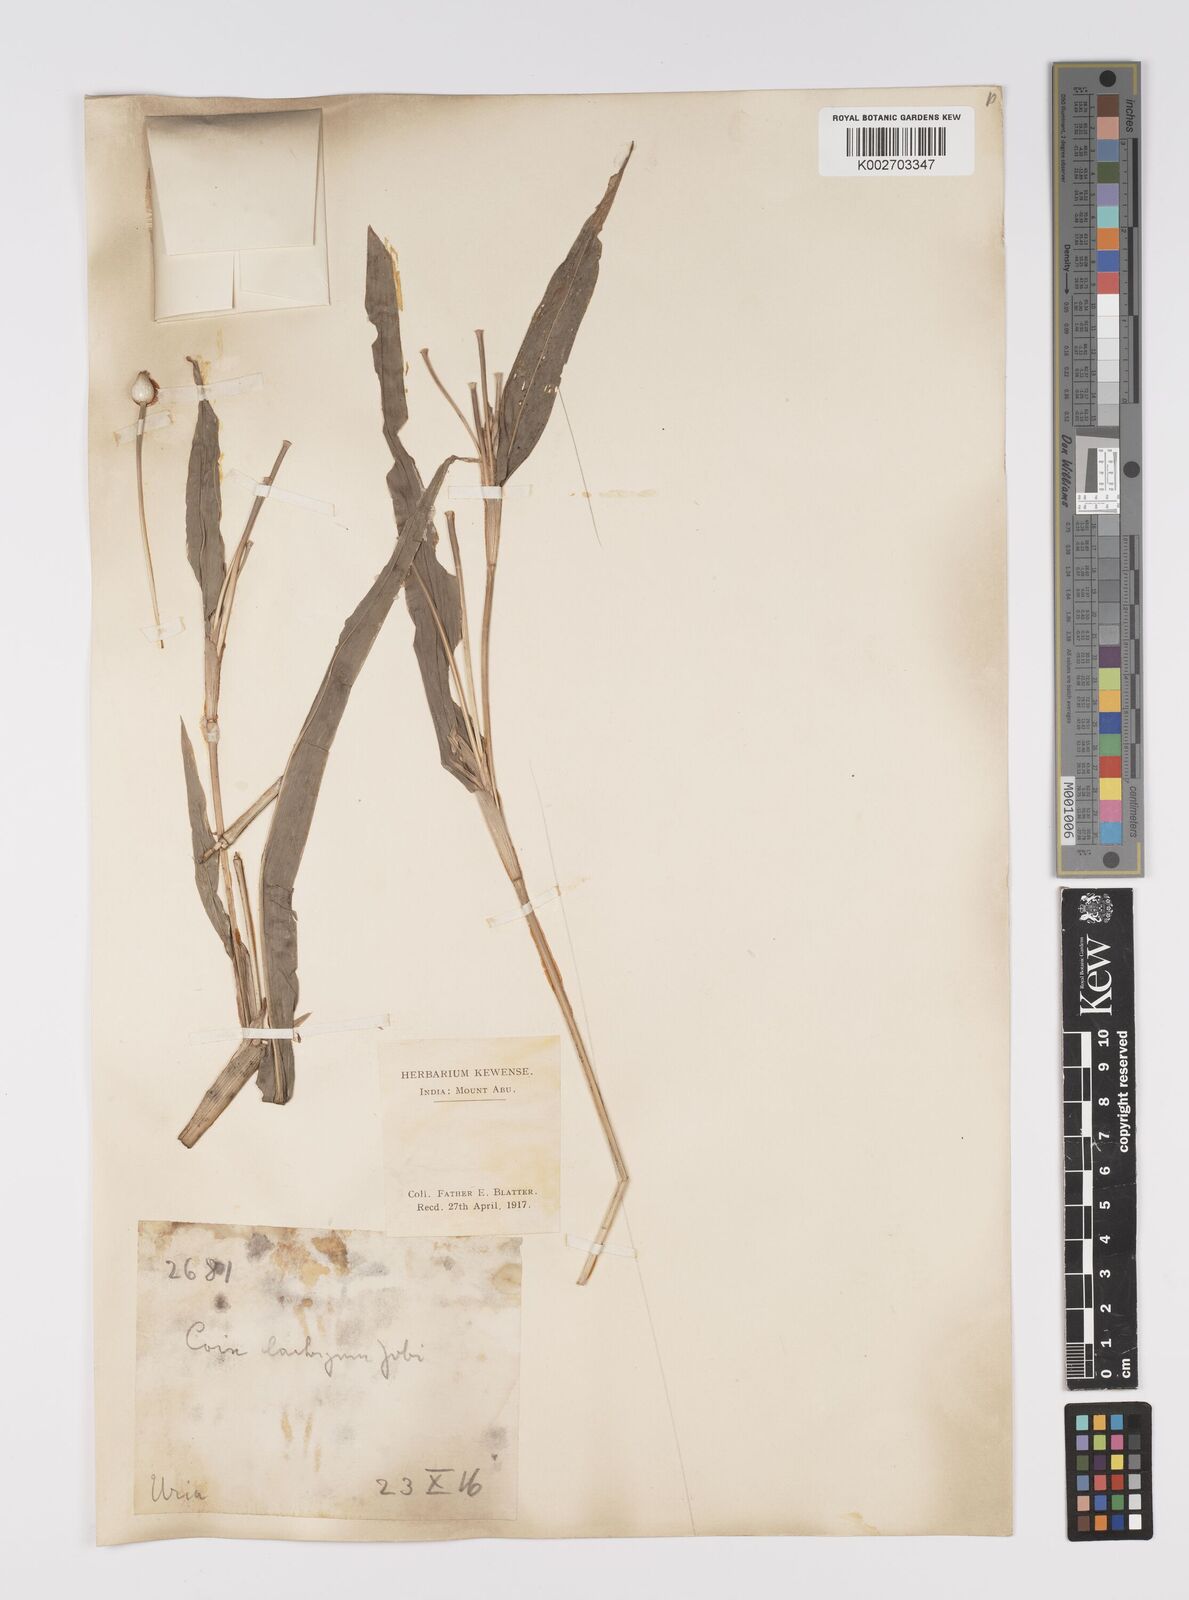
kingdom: Plantae
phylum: Tracheophyta
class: Liliopsida
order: Poales
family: Poaceae
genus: Coix
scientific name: Coix lacryma-jobi
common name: Job's tears
